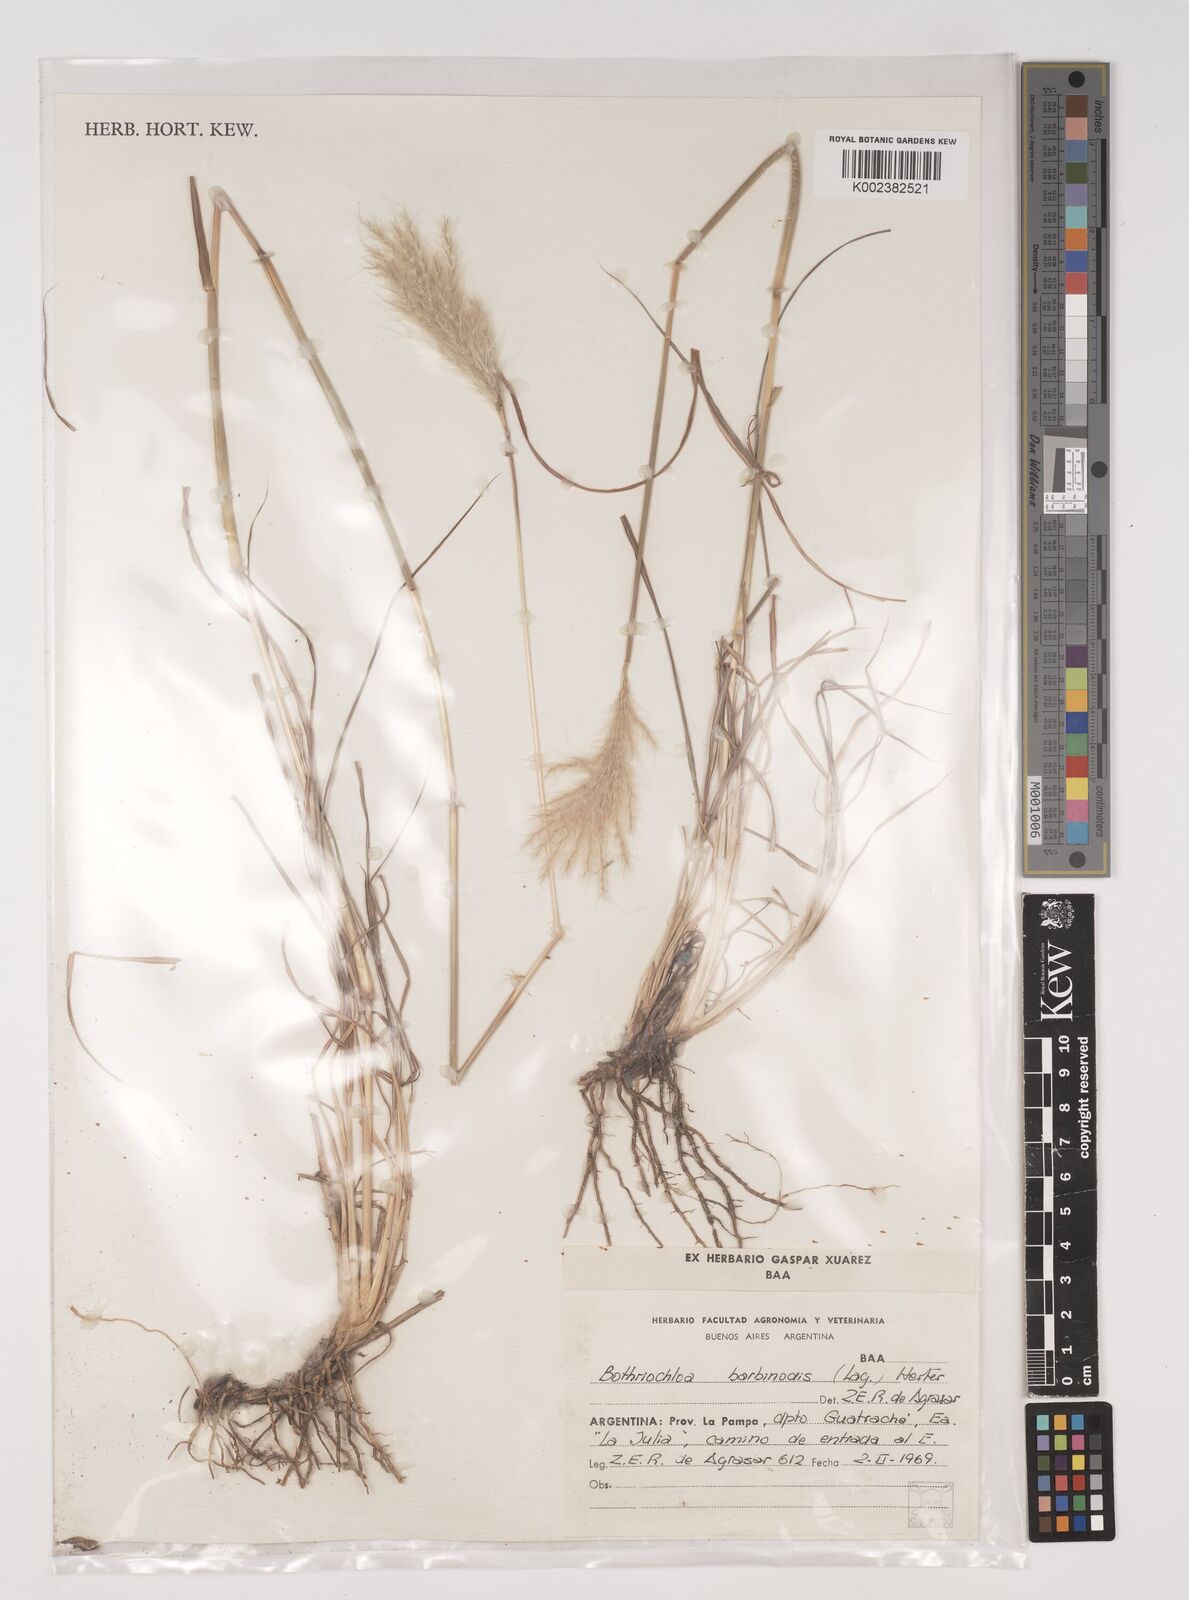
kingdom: Plantae
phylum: Tracheophyta
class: Liliopsida
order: Poales
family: Poaceae
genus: Bothriochloa
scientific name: Bothriochloa saccharoides
